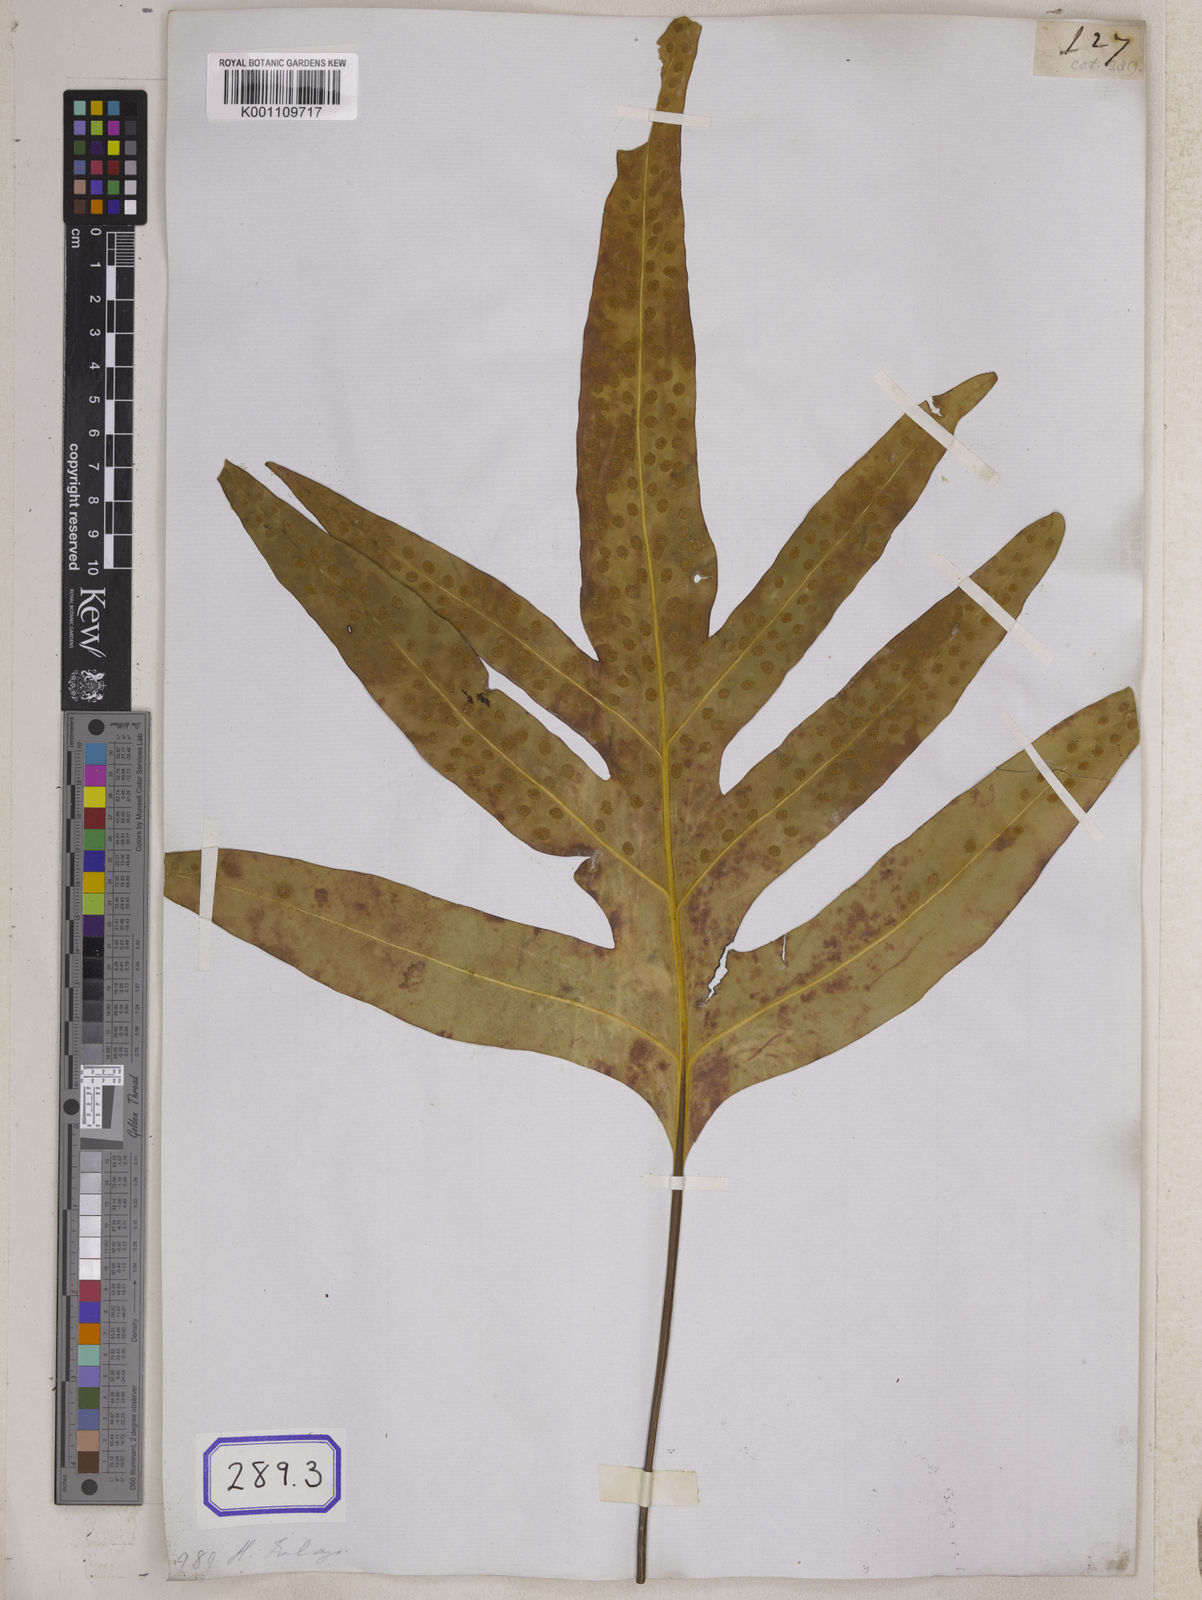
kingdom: Plantae
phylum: Tracheophyta
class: Polypodiopsida
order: Polypodiales
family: Polypodiaceae
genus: Microsorum
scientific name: Microsorum scolopendria
